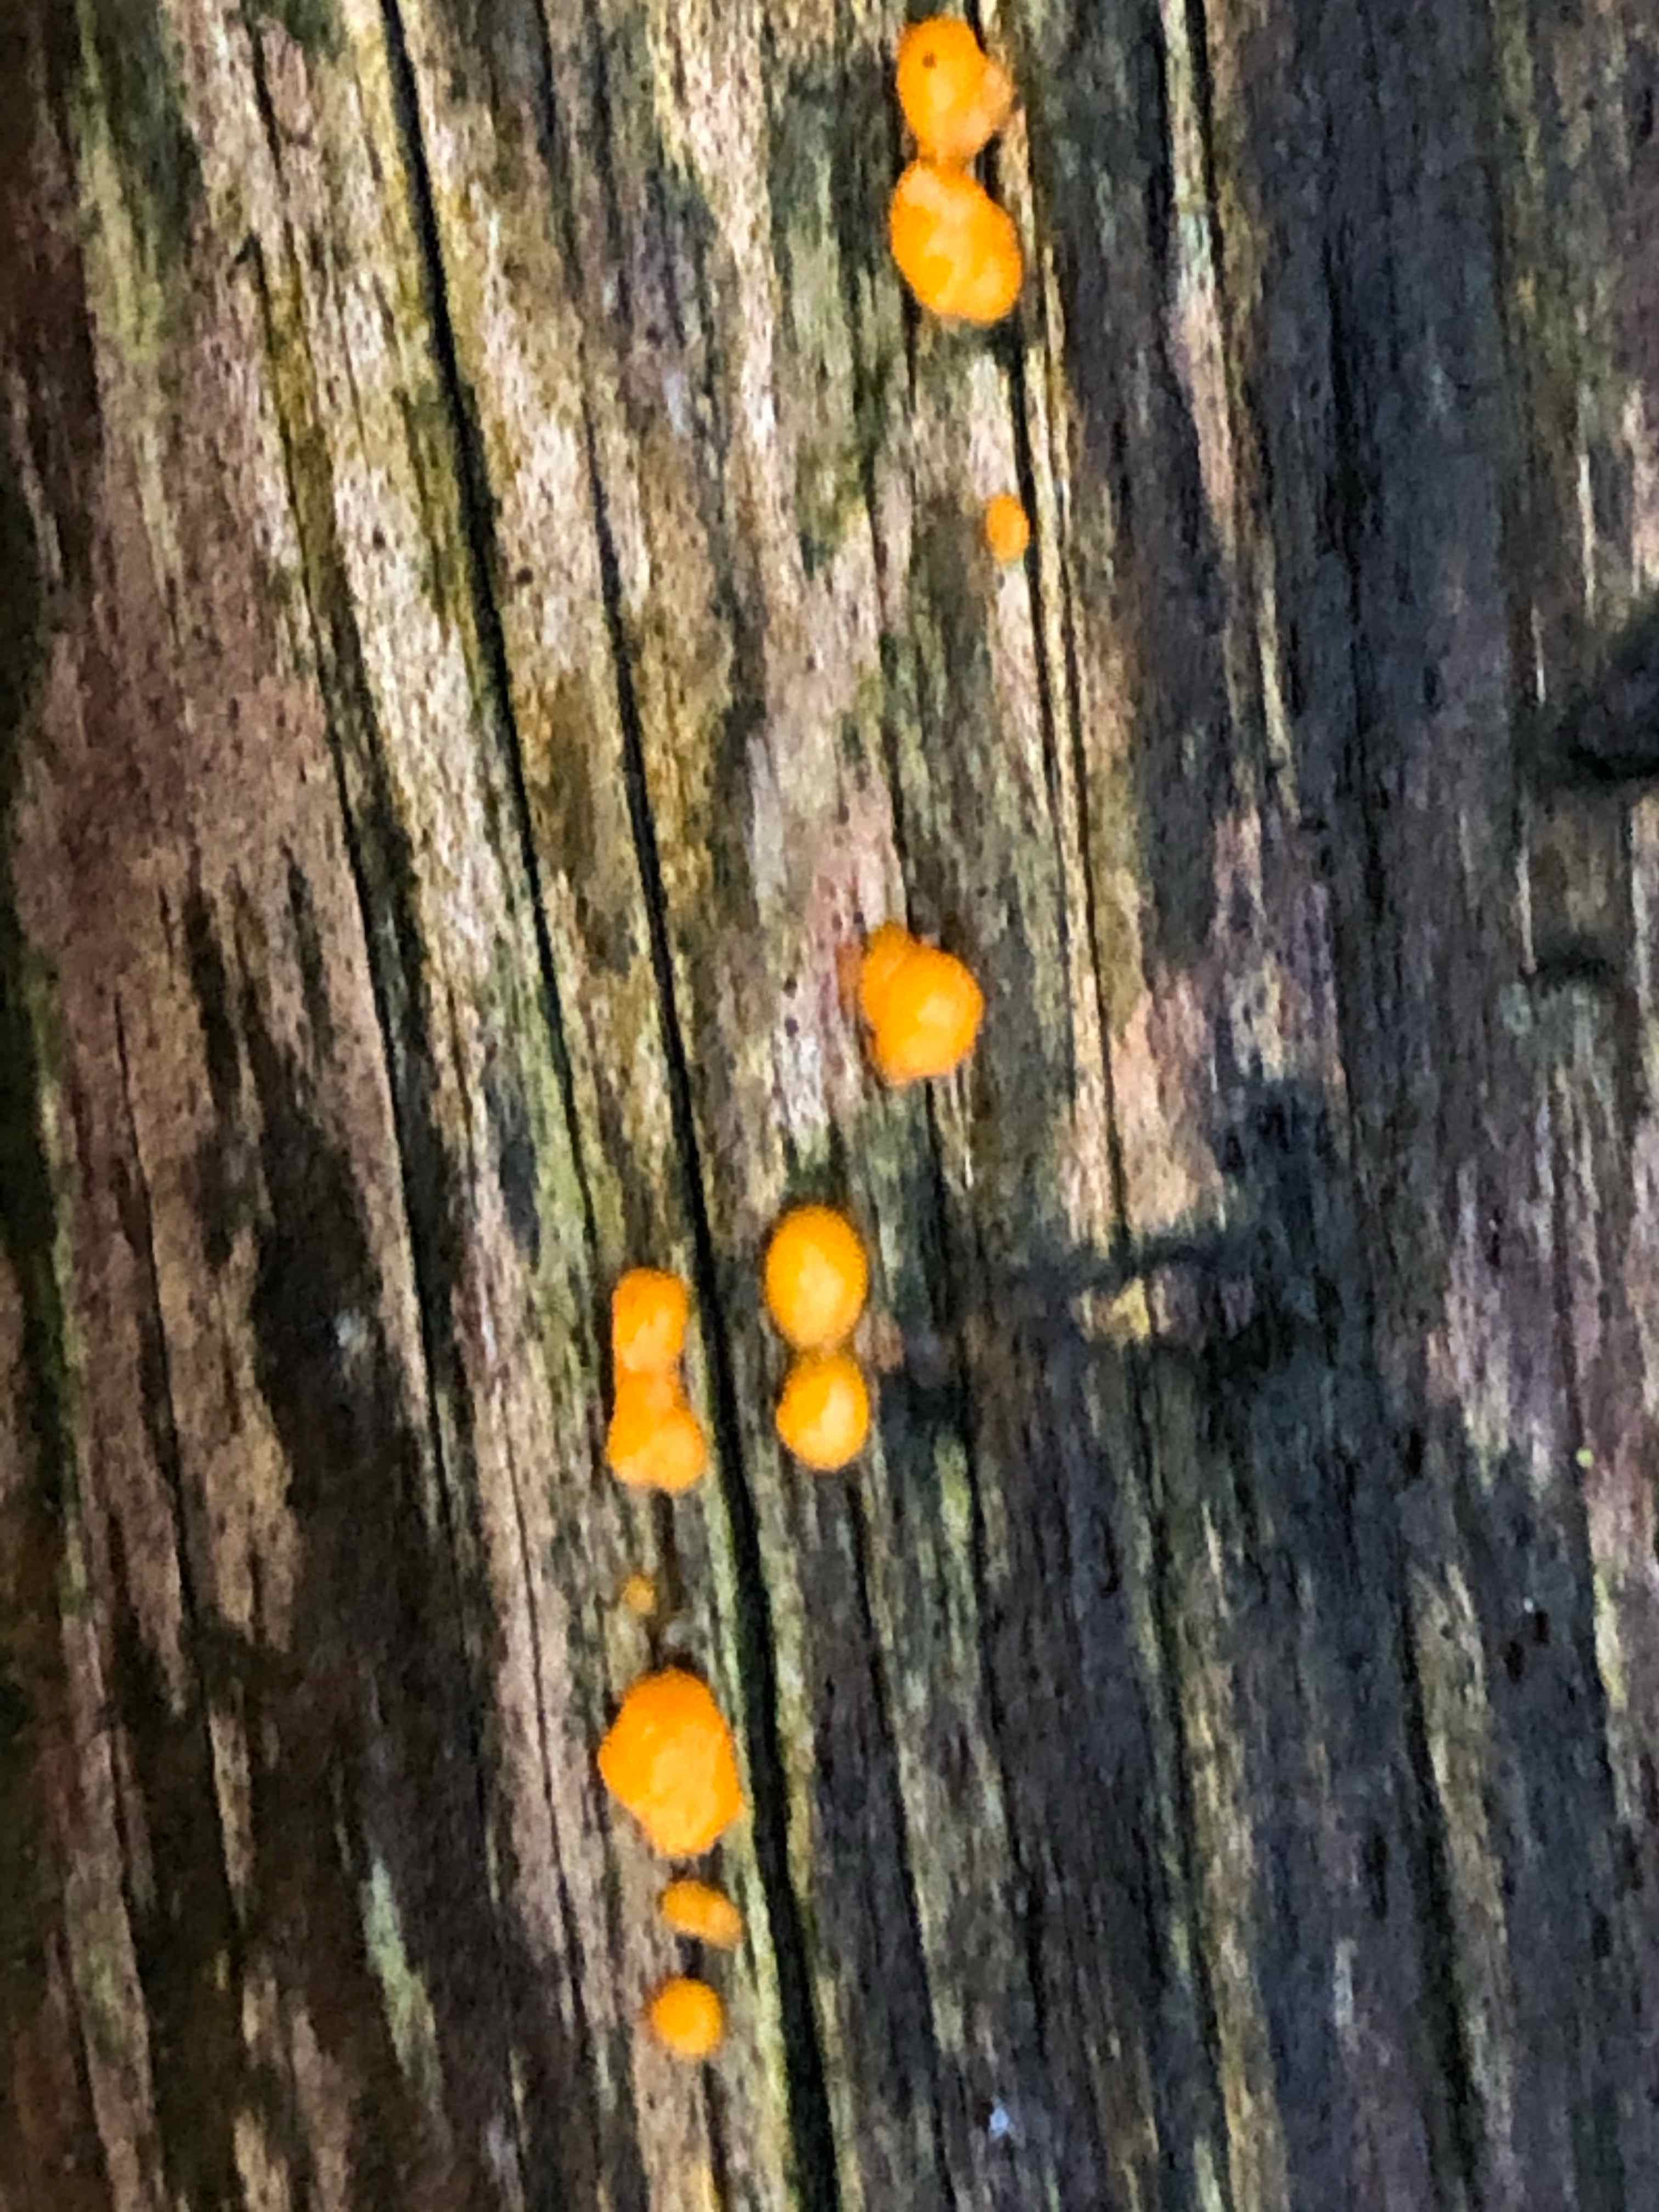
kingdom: Fungi
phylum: Basidiomycota
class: Dacrymycetes
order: Dacrymycetales
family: Dacrymycetaceae
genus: Dacrymyces
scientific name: Dacrymyces stillatus
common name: almindelig tåresvamp
